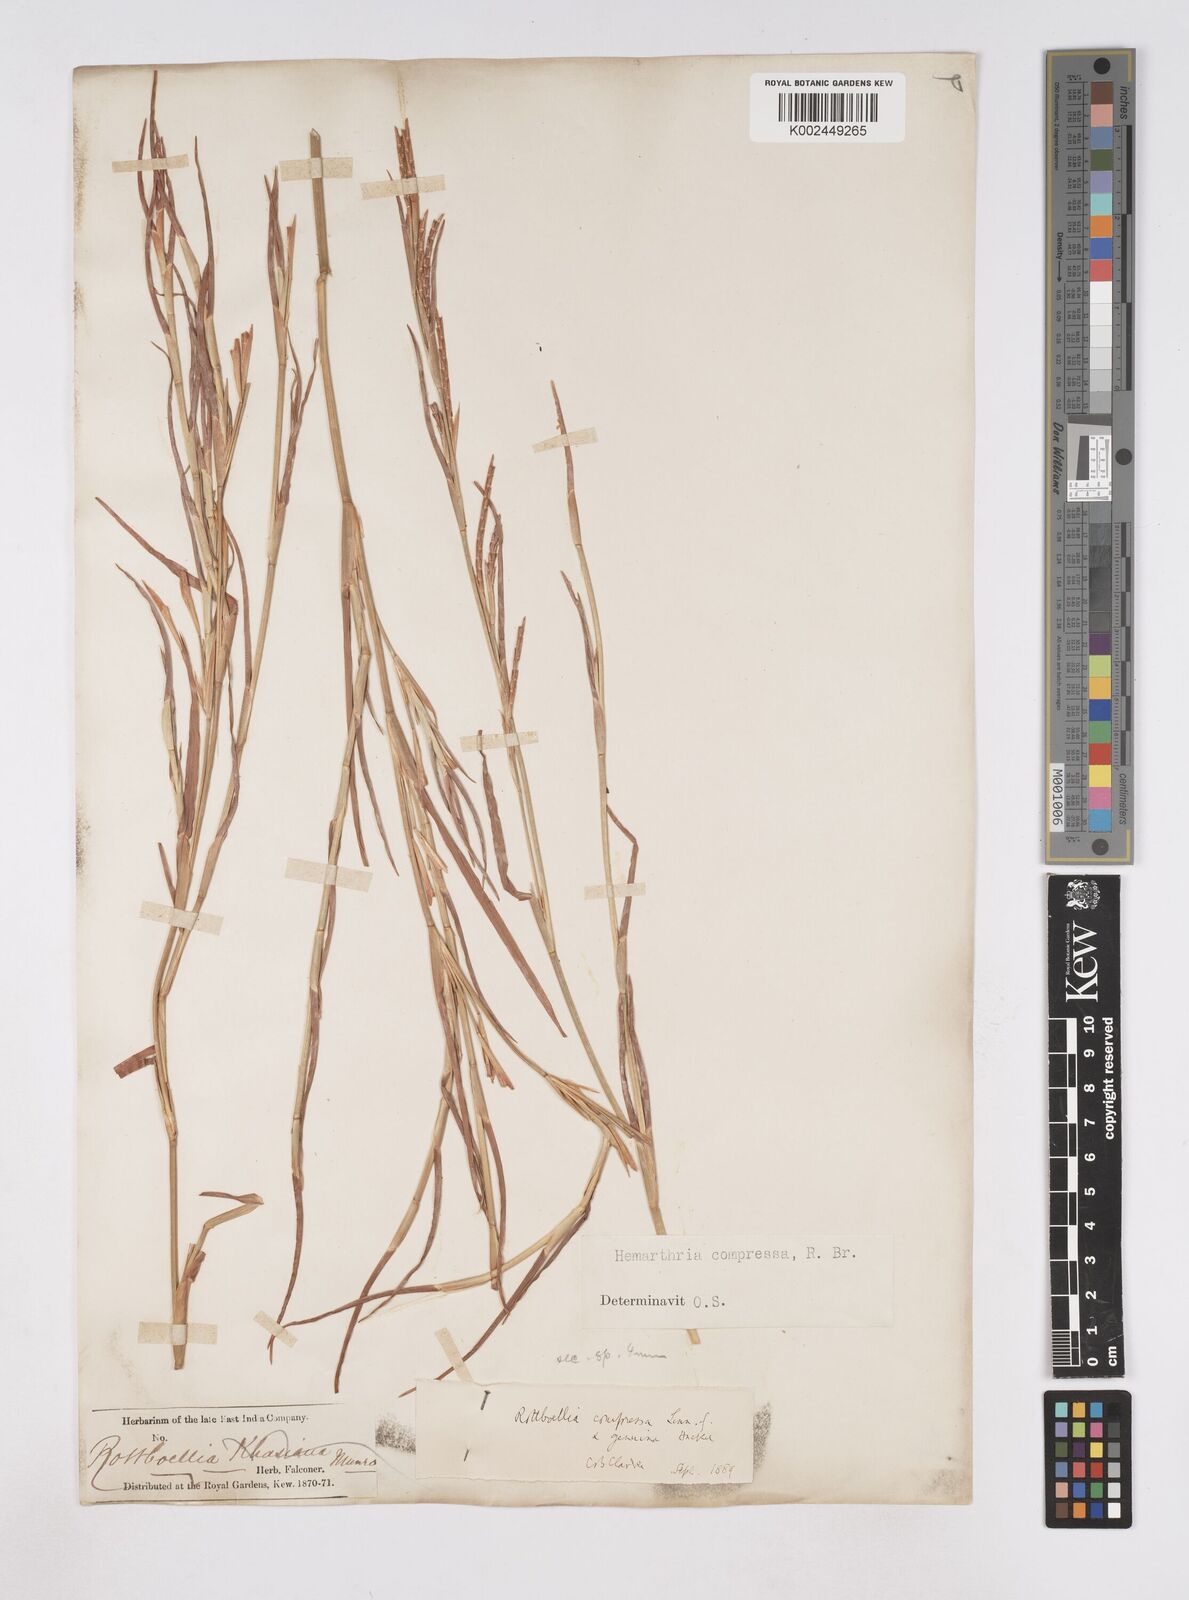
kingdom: Plantae
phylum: Tracheophyta
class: Liliopsida
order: Poales
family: Poaceae
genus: Hemarthria
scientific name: Hemarthria compressa
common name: Whip grass
